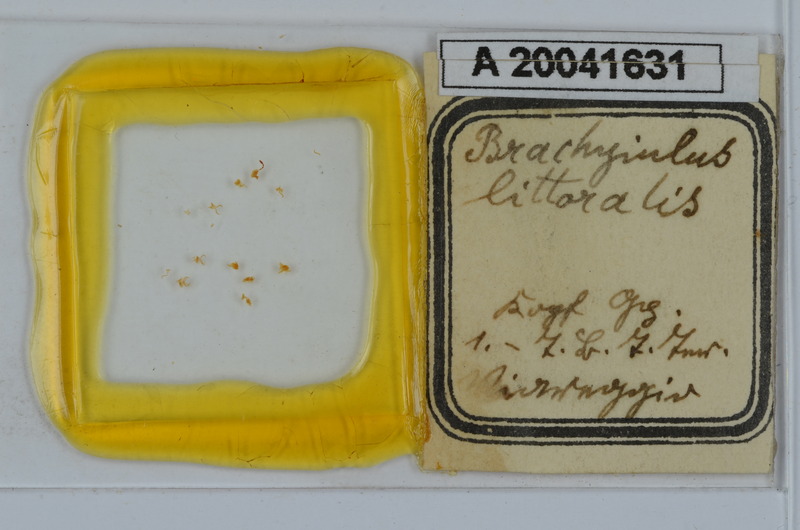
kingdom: Animalia
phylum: Arthropoda
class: Diplopoda
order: Julida
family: Julidae
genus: Brachyiulus
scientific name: Brachyiulus pusillus
